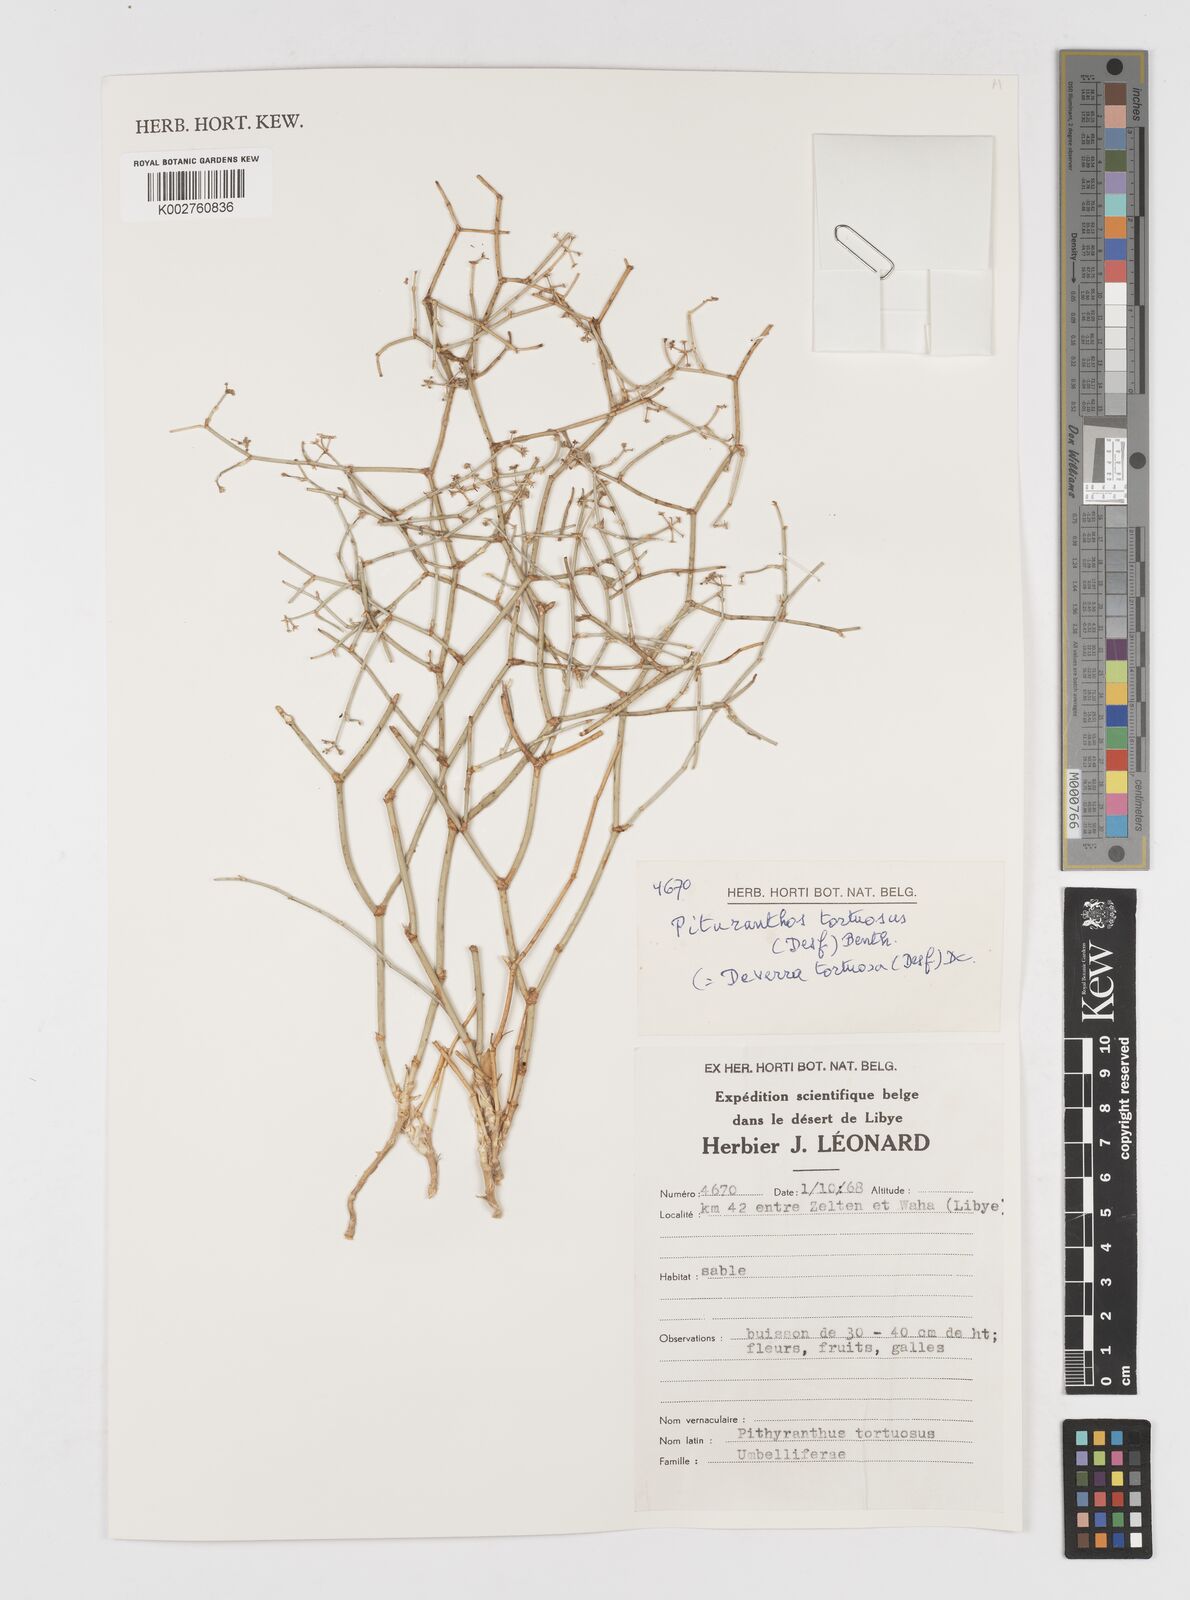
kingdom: Plantae
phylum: Tracheophyta
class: Magnoliopsida
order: Apiales
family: Apiaceae
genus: Deverra
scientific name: Deverra tortuosa
